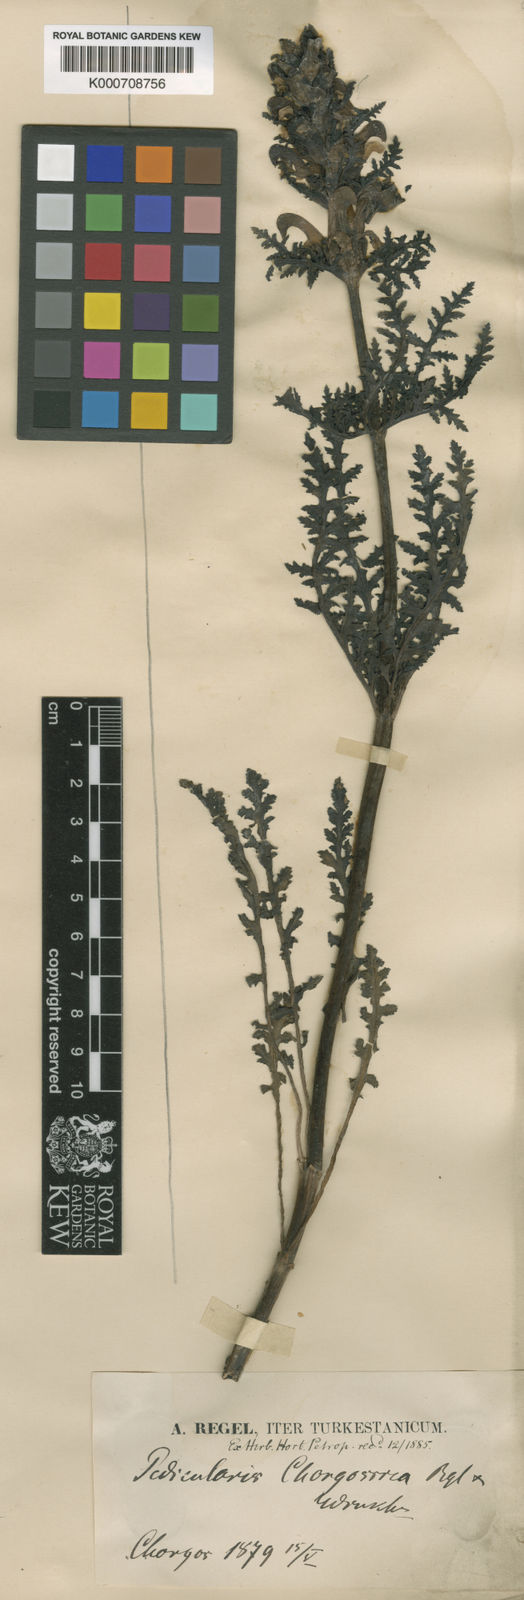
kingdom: Plantae
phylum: Tracheophyta
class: Magnoliopsida
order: Lamiales
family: Orobanchaceae
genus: Pedicularis
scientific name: Pedicularis chorgonica
